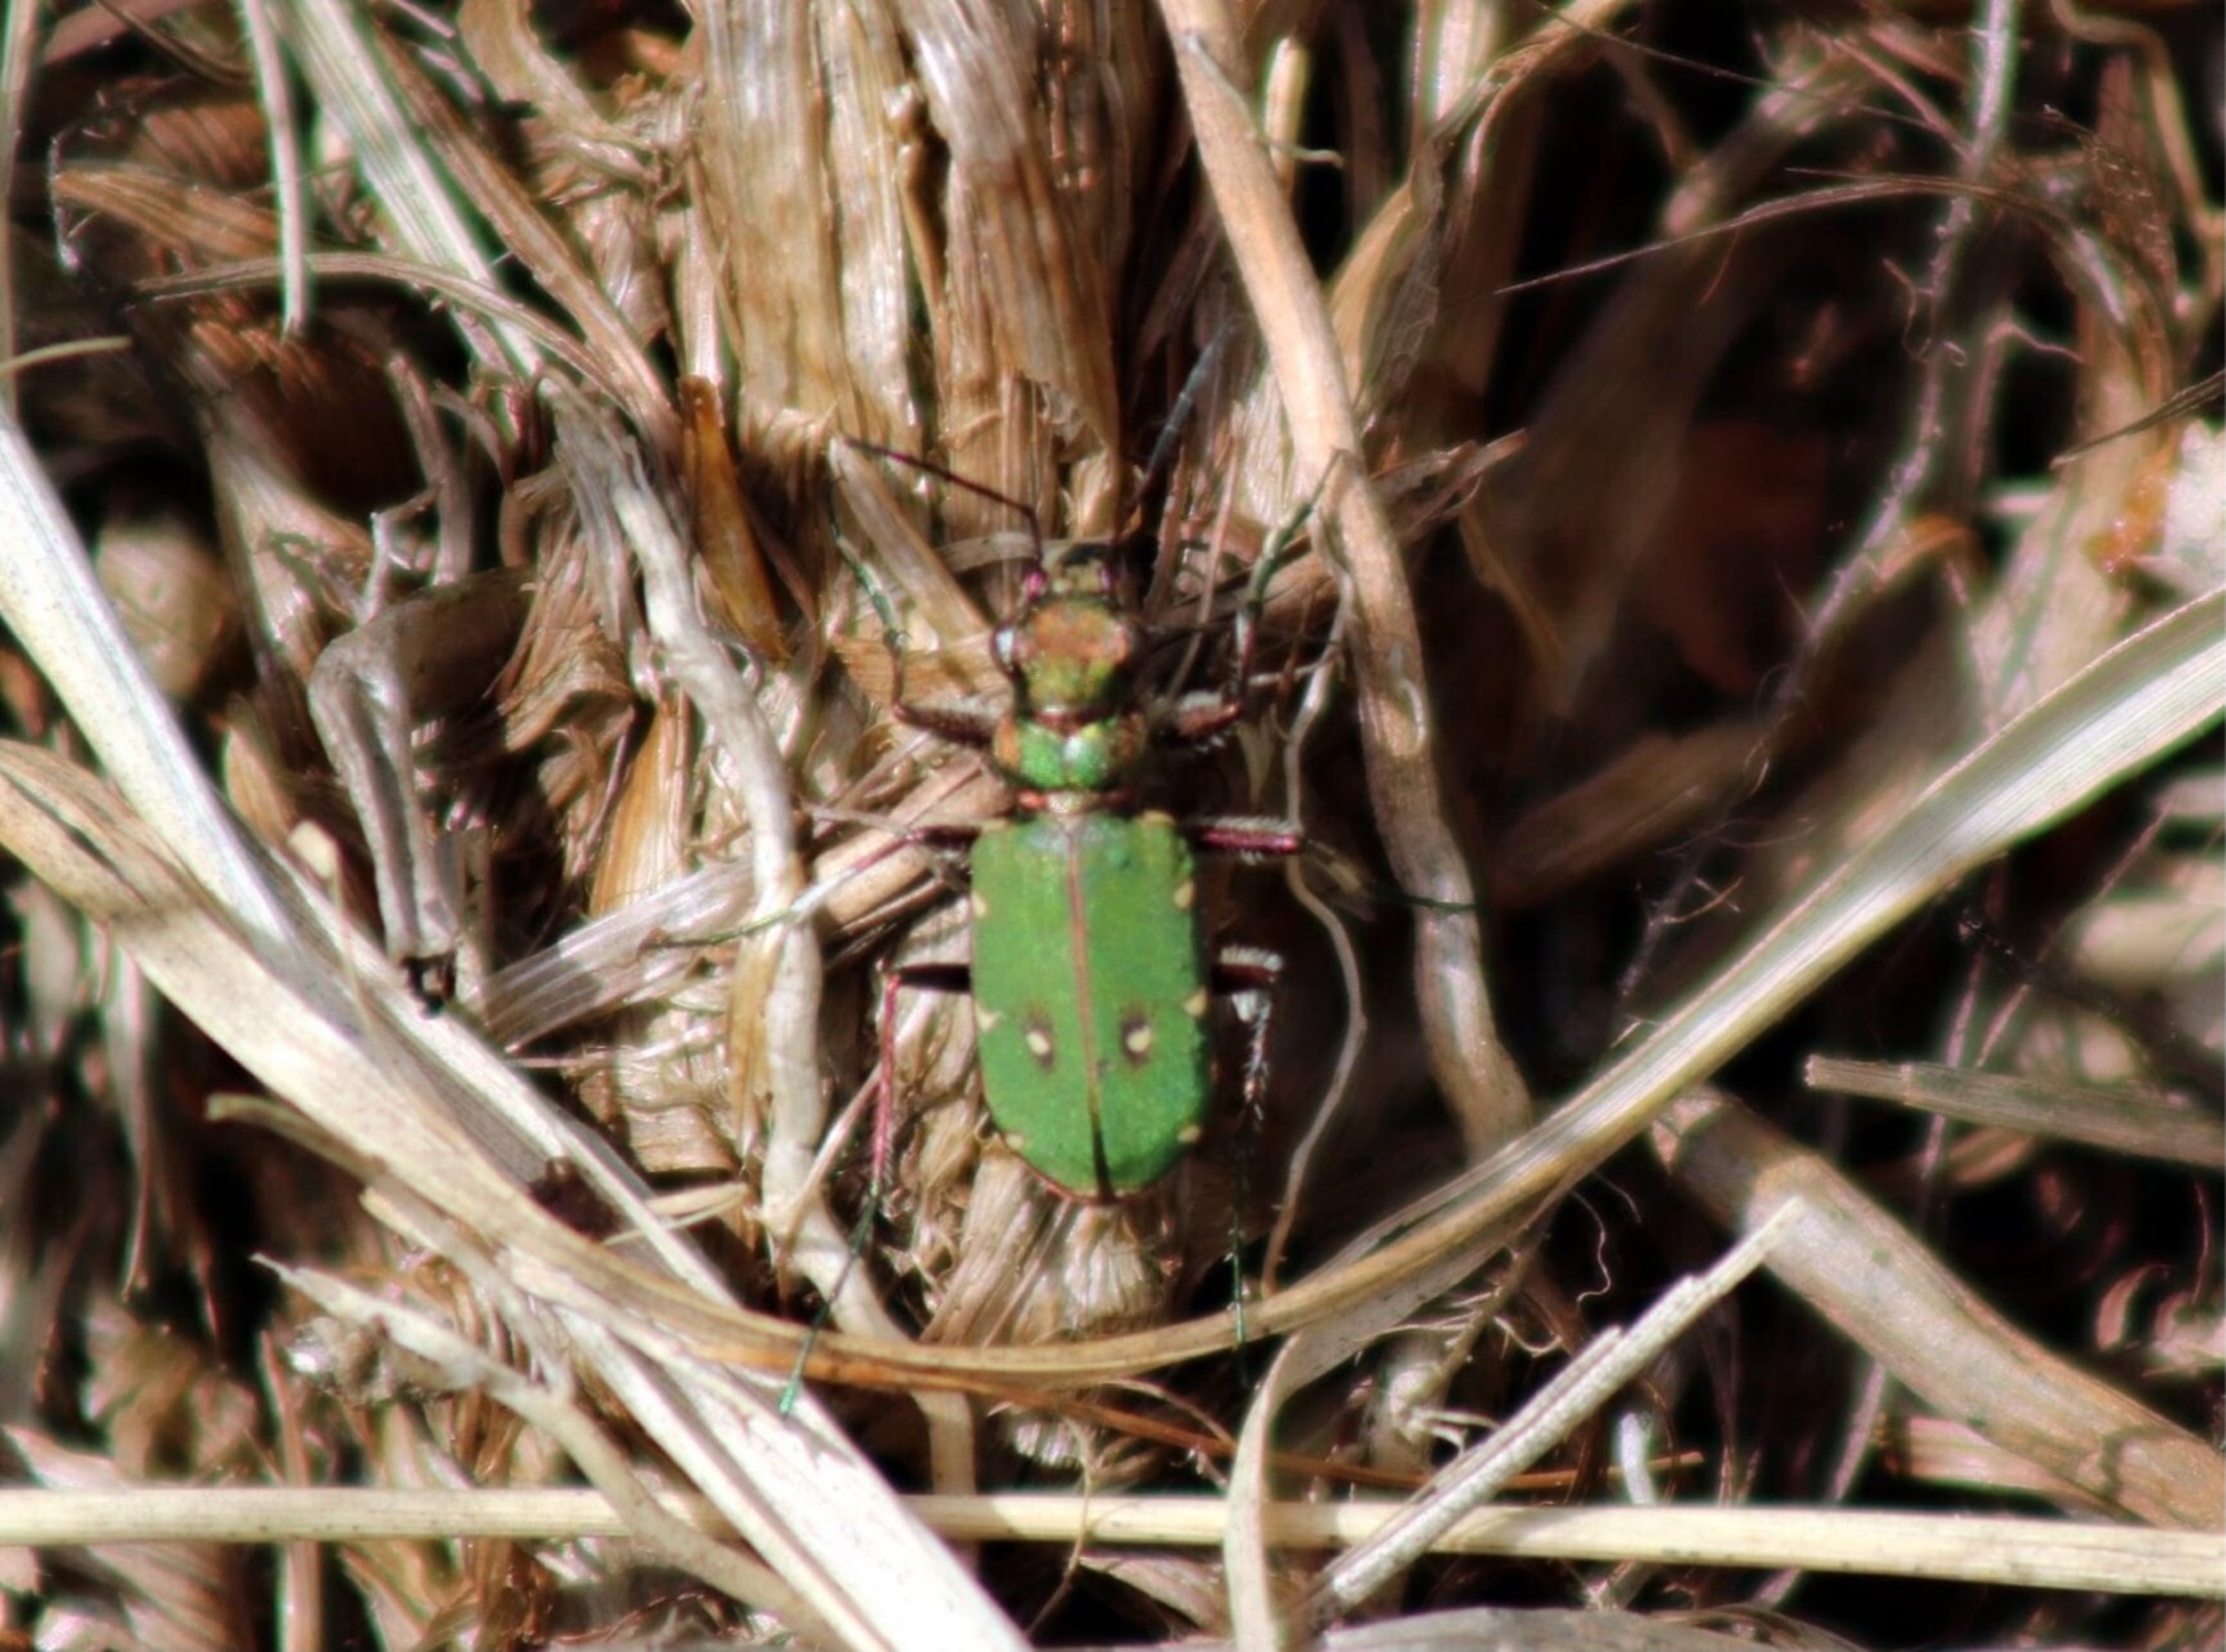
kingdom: Animalia
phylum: Arthropoda
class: Insecta
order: Coleoptera
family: Carabidae
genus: Cicindela
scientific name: Cicindela campestris
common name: Grøn sandspringer
